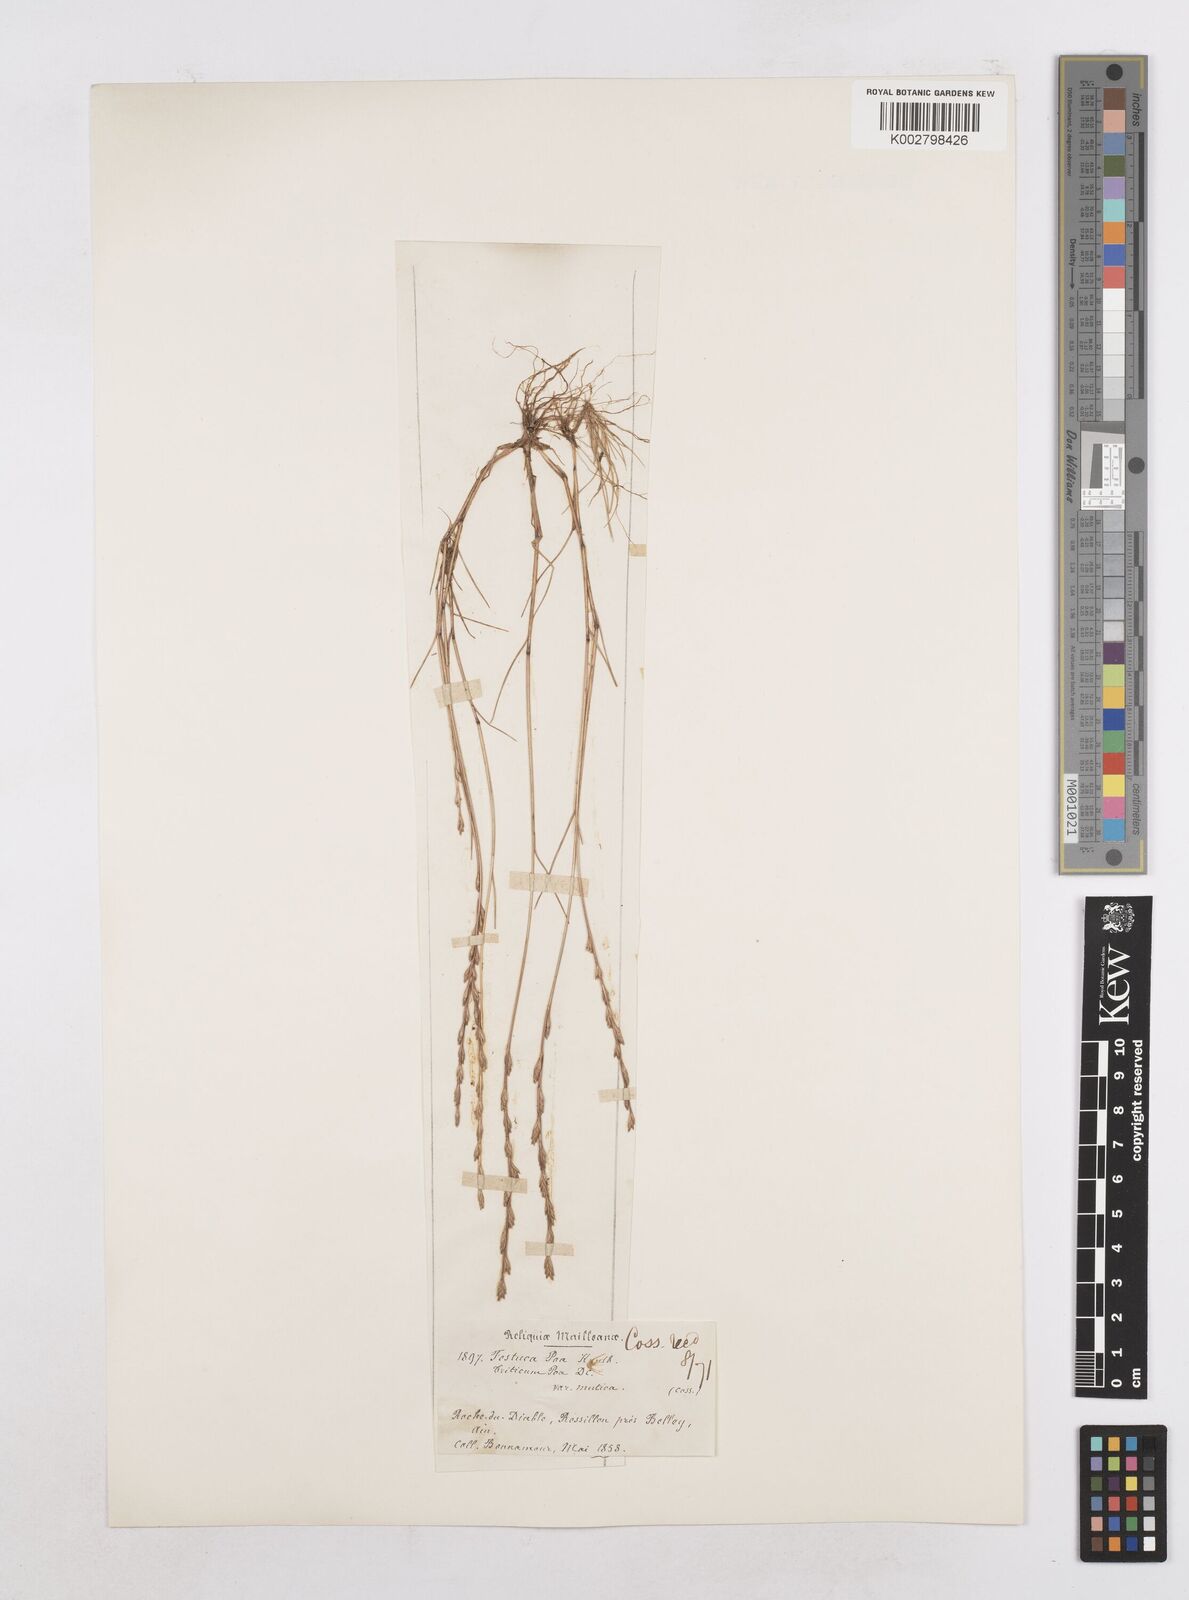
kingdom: Plantae
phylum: Tracheophyta
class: Liliopsida
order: Poales
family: Poaceae
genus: Festuca
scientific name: Festuca lachenalii
